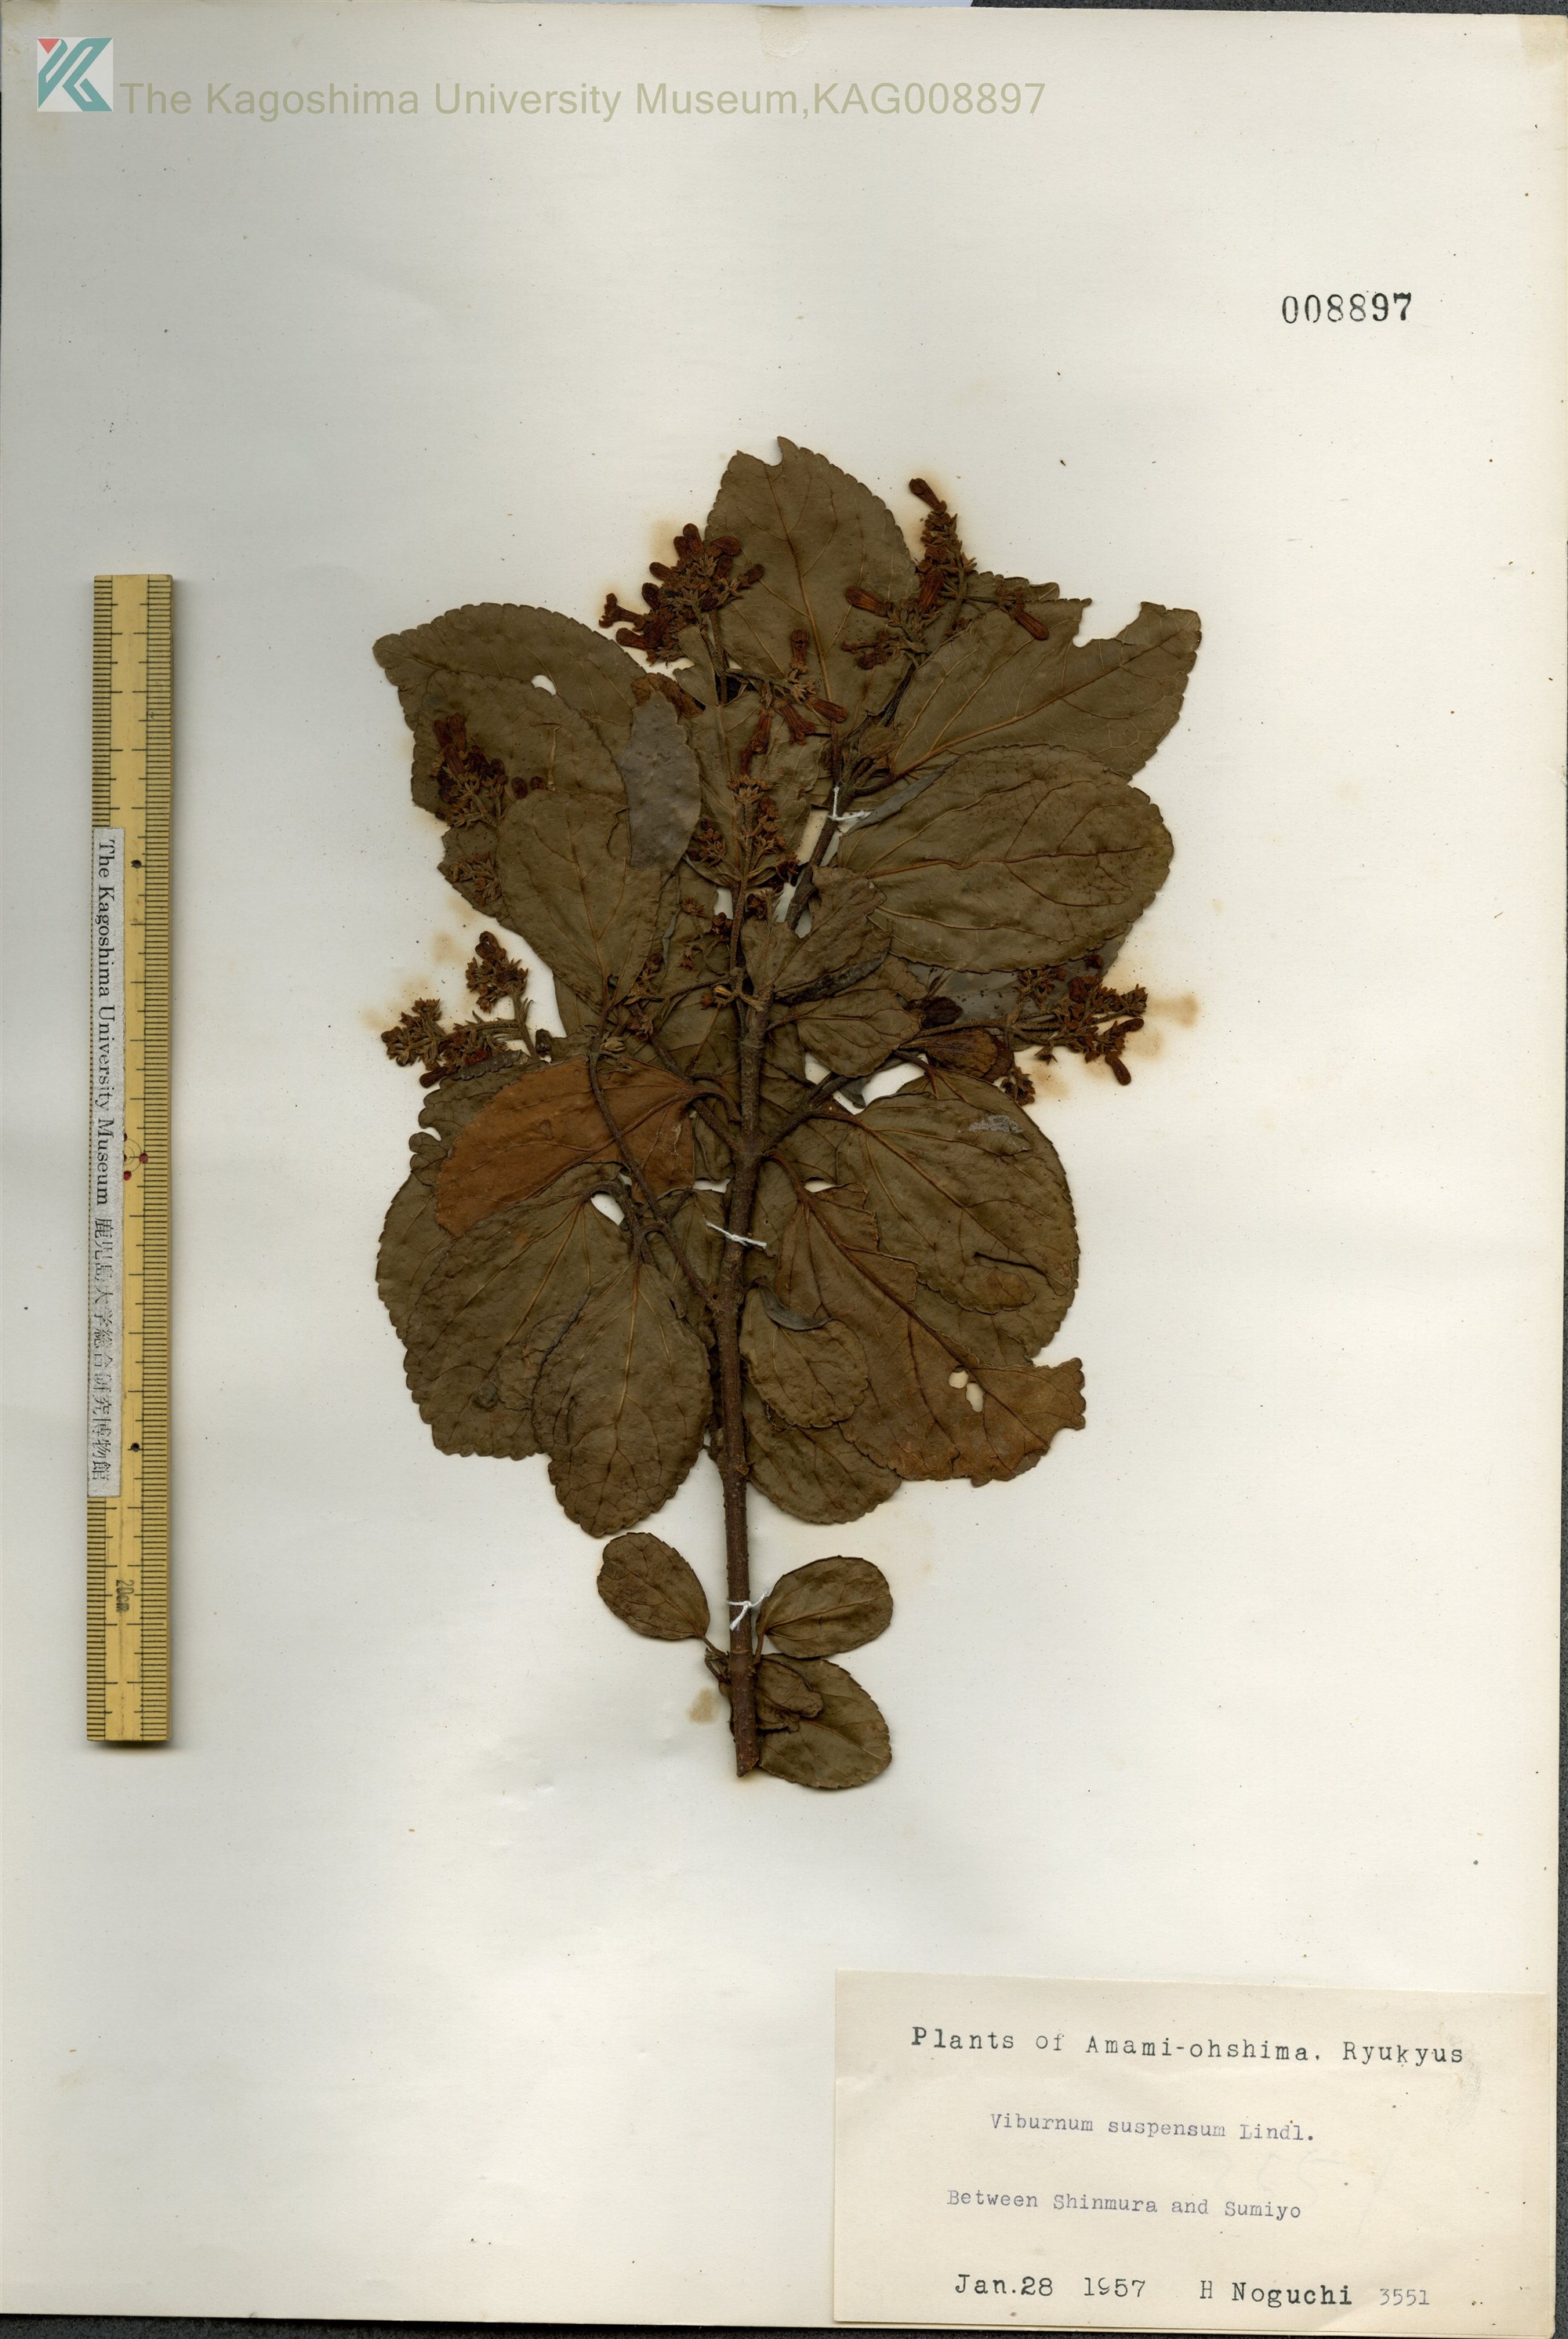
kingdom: Plantae
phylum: Tracheophyta
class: Magnoliopsida
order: Dipsacales
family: Viburnaceae
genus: Viburnum
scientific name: Viburnum suspensum
